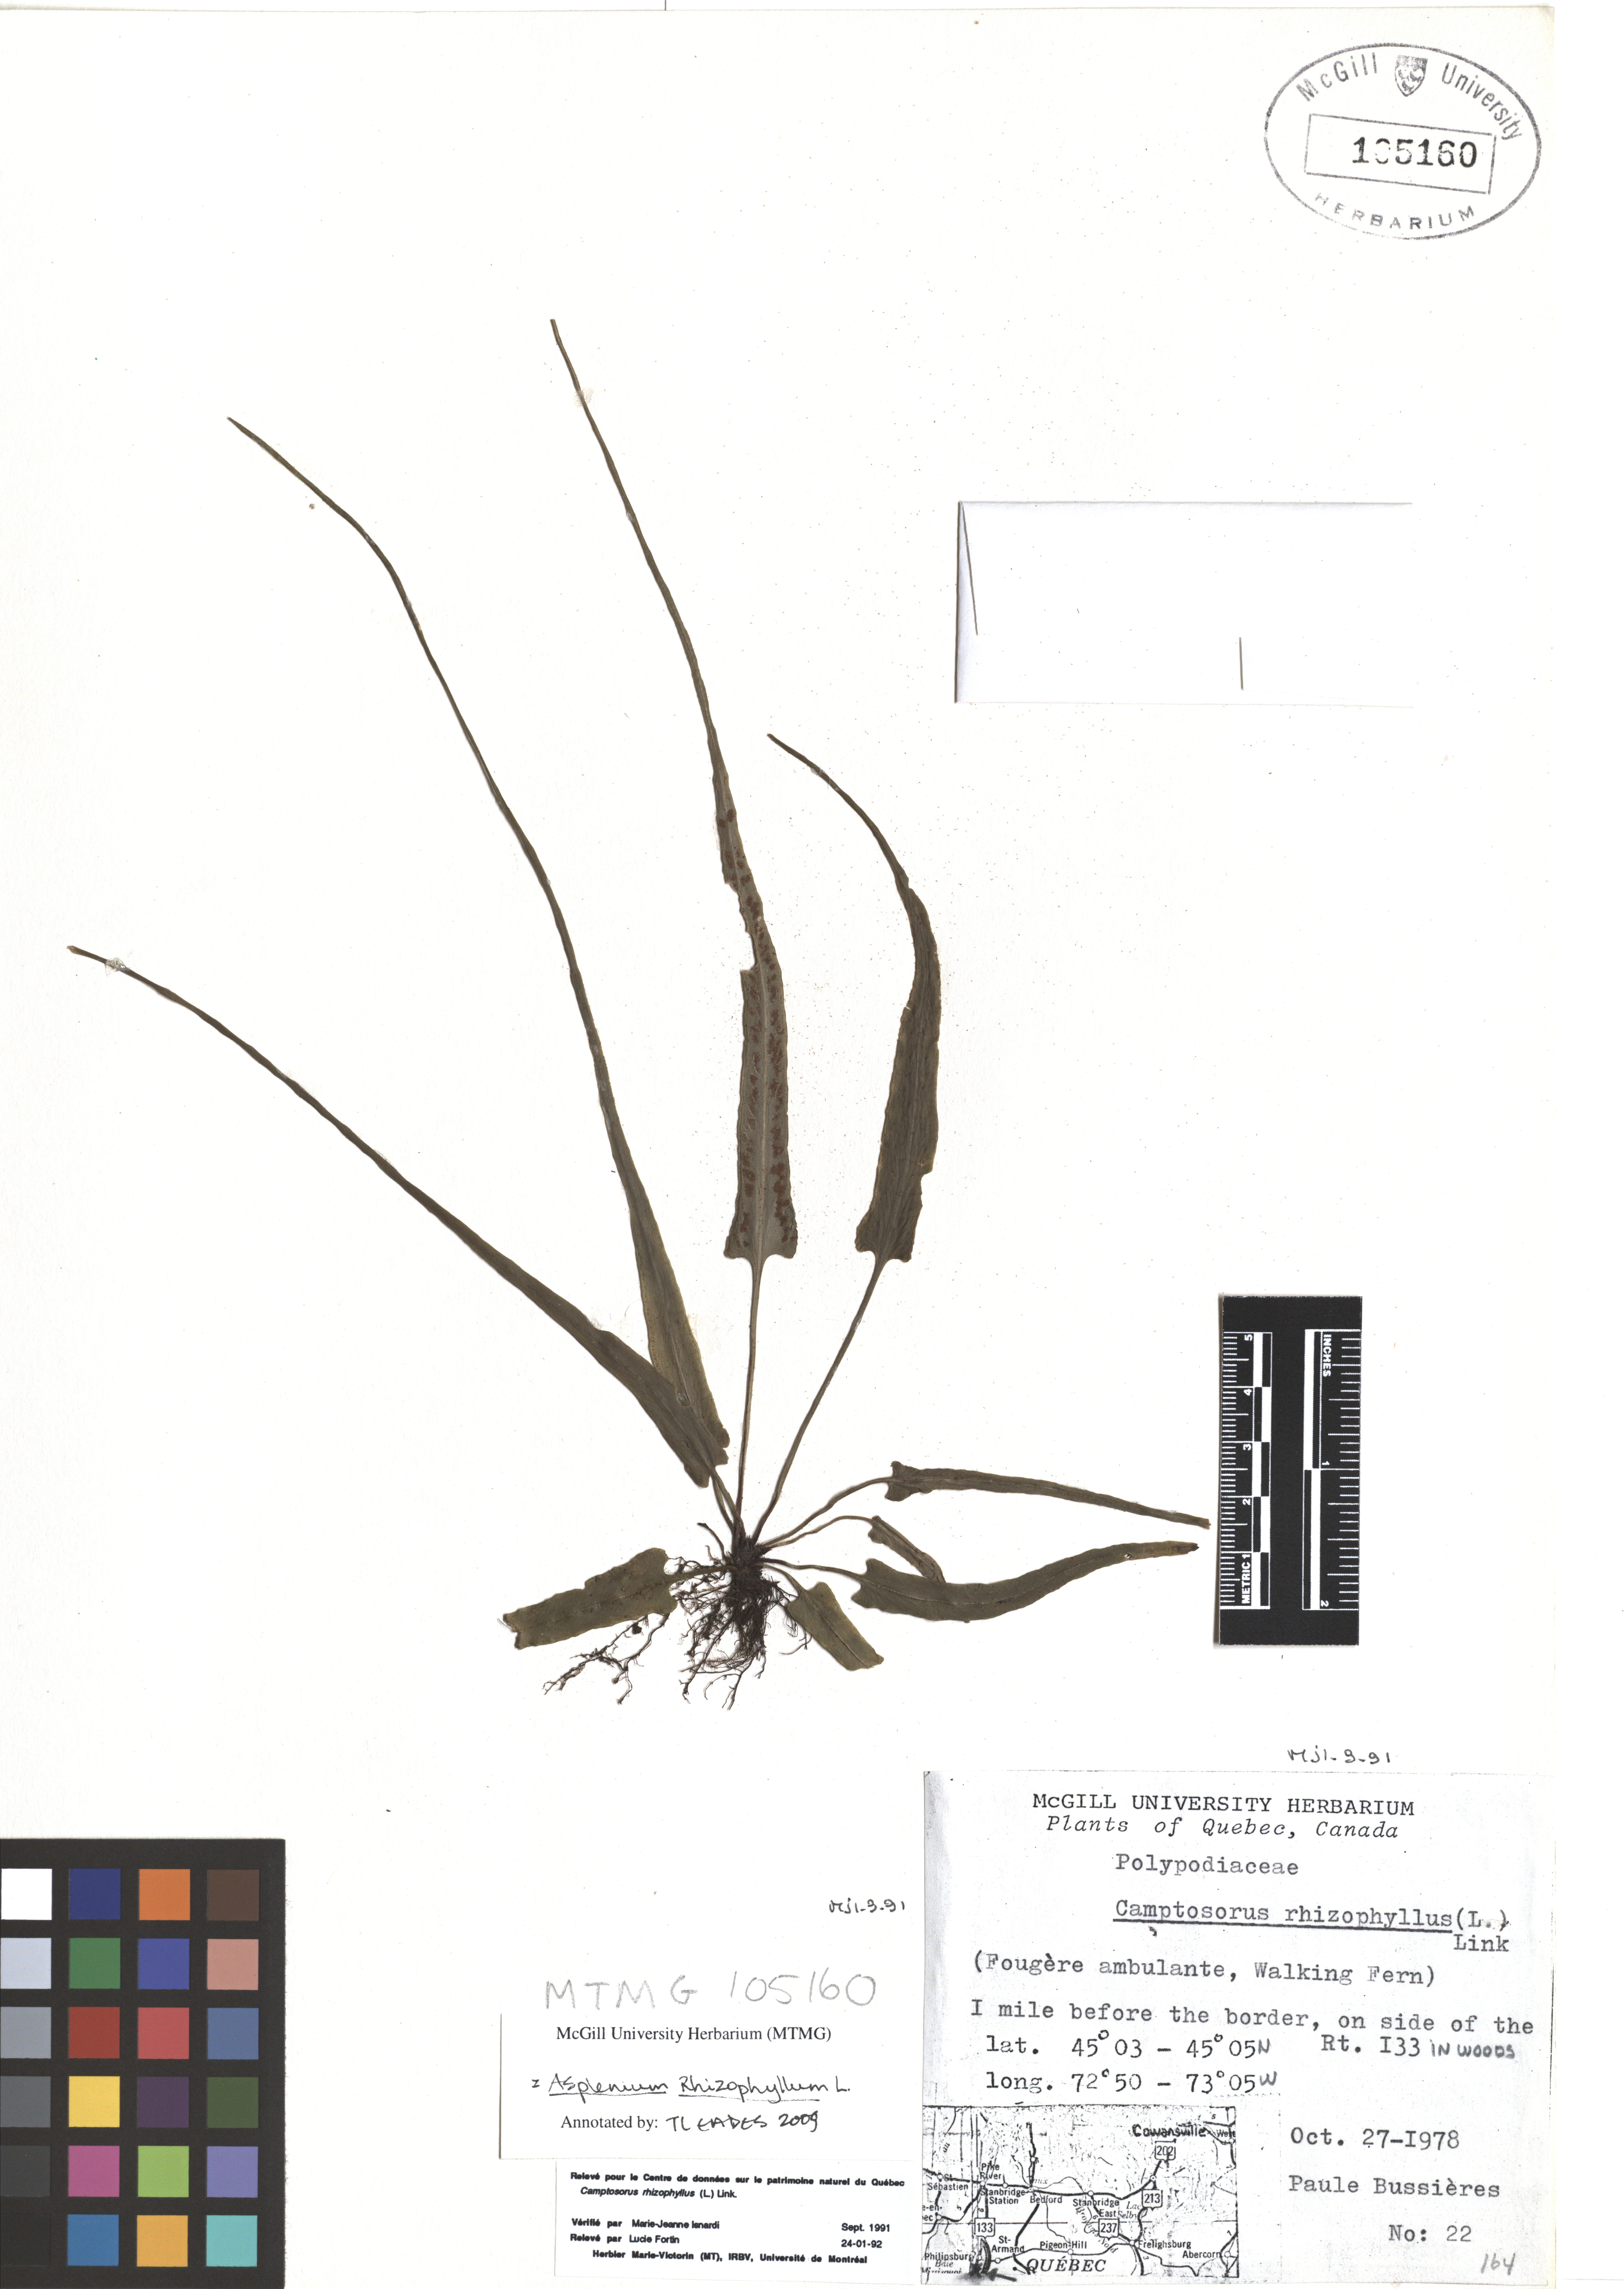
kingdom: Plantae
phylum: Tracheophyta
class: Polypodiopsida
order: Polypodiales
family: Aspleniaceae
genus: Asplenium
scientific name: Asplenium radicans
